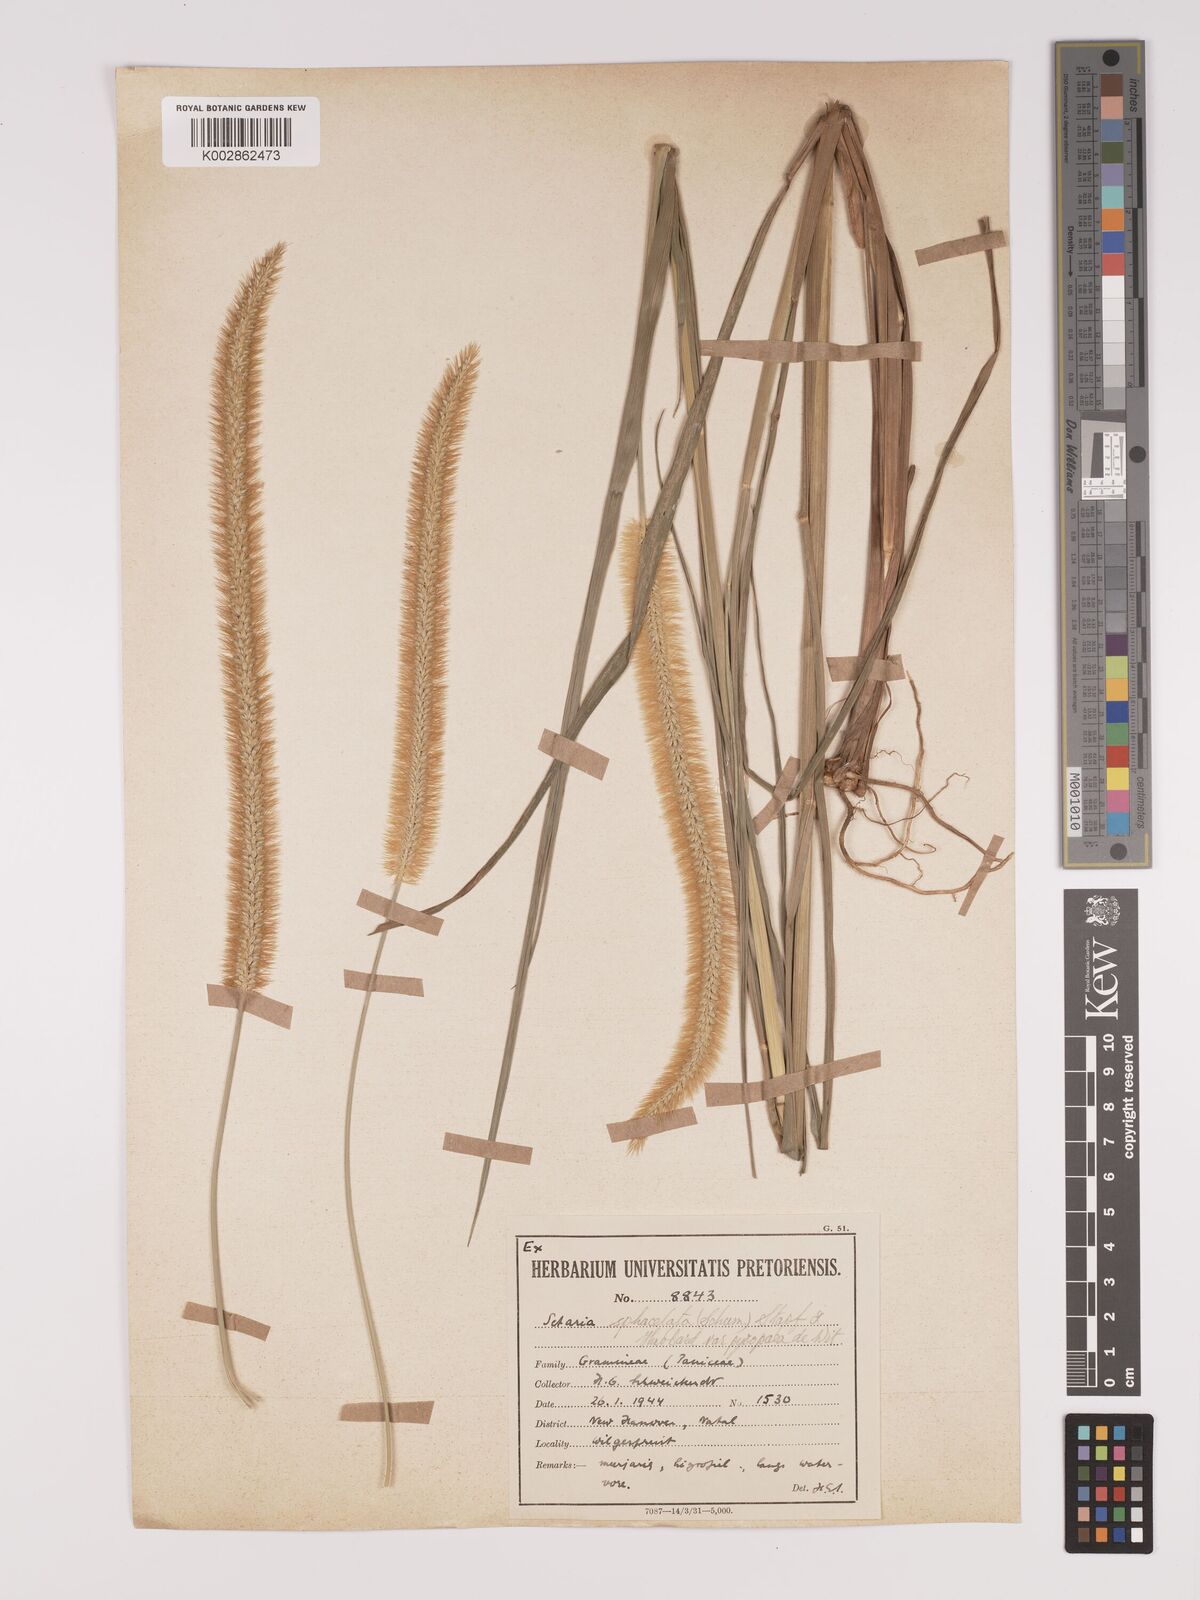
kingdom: Plantae
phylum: Tracheophyta
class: Liliopsida
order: Poales
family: Poaceae
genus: Setaria
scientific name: Setaria sphacelata
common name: African bristlegrass
